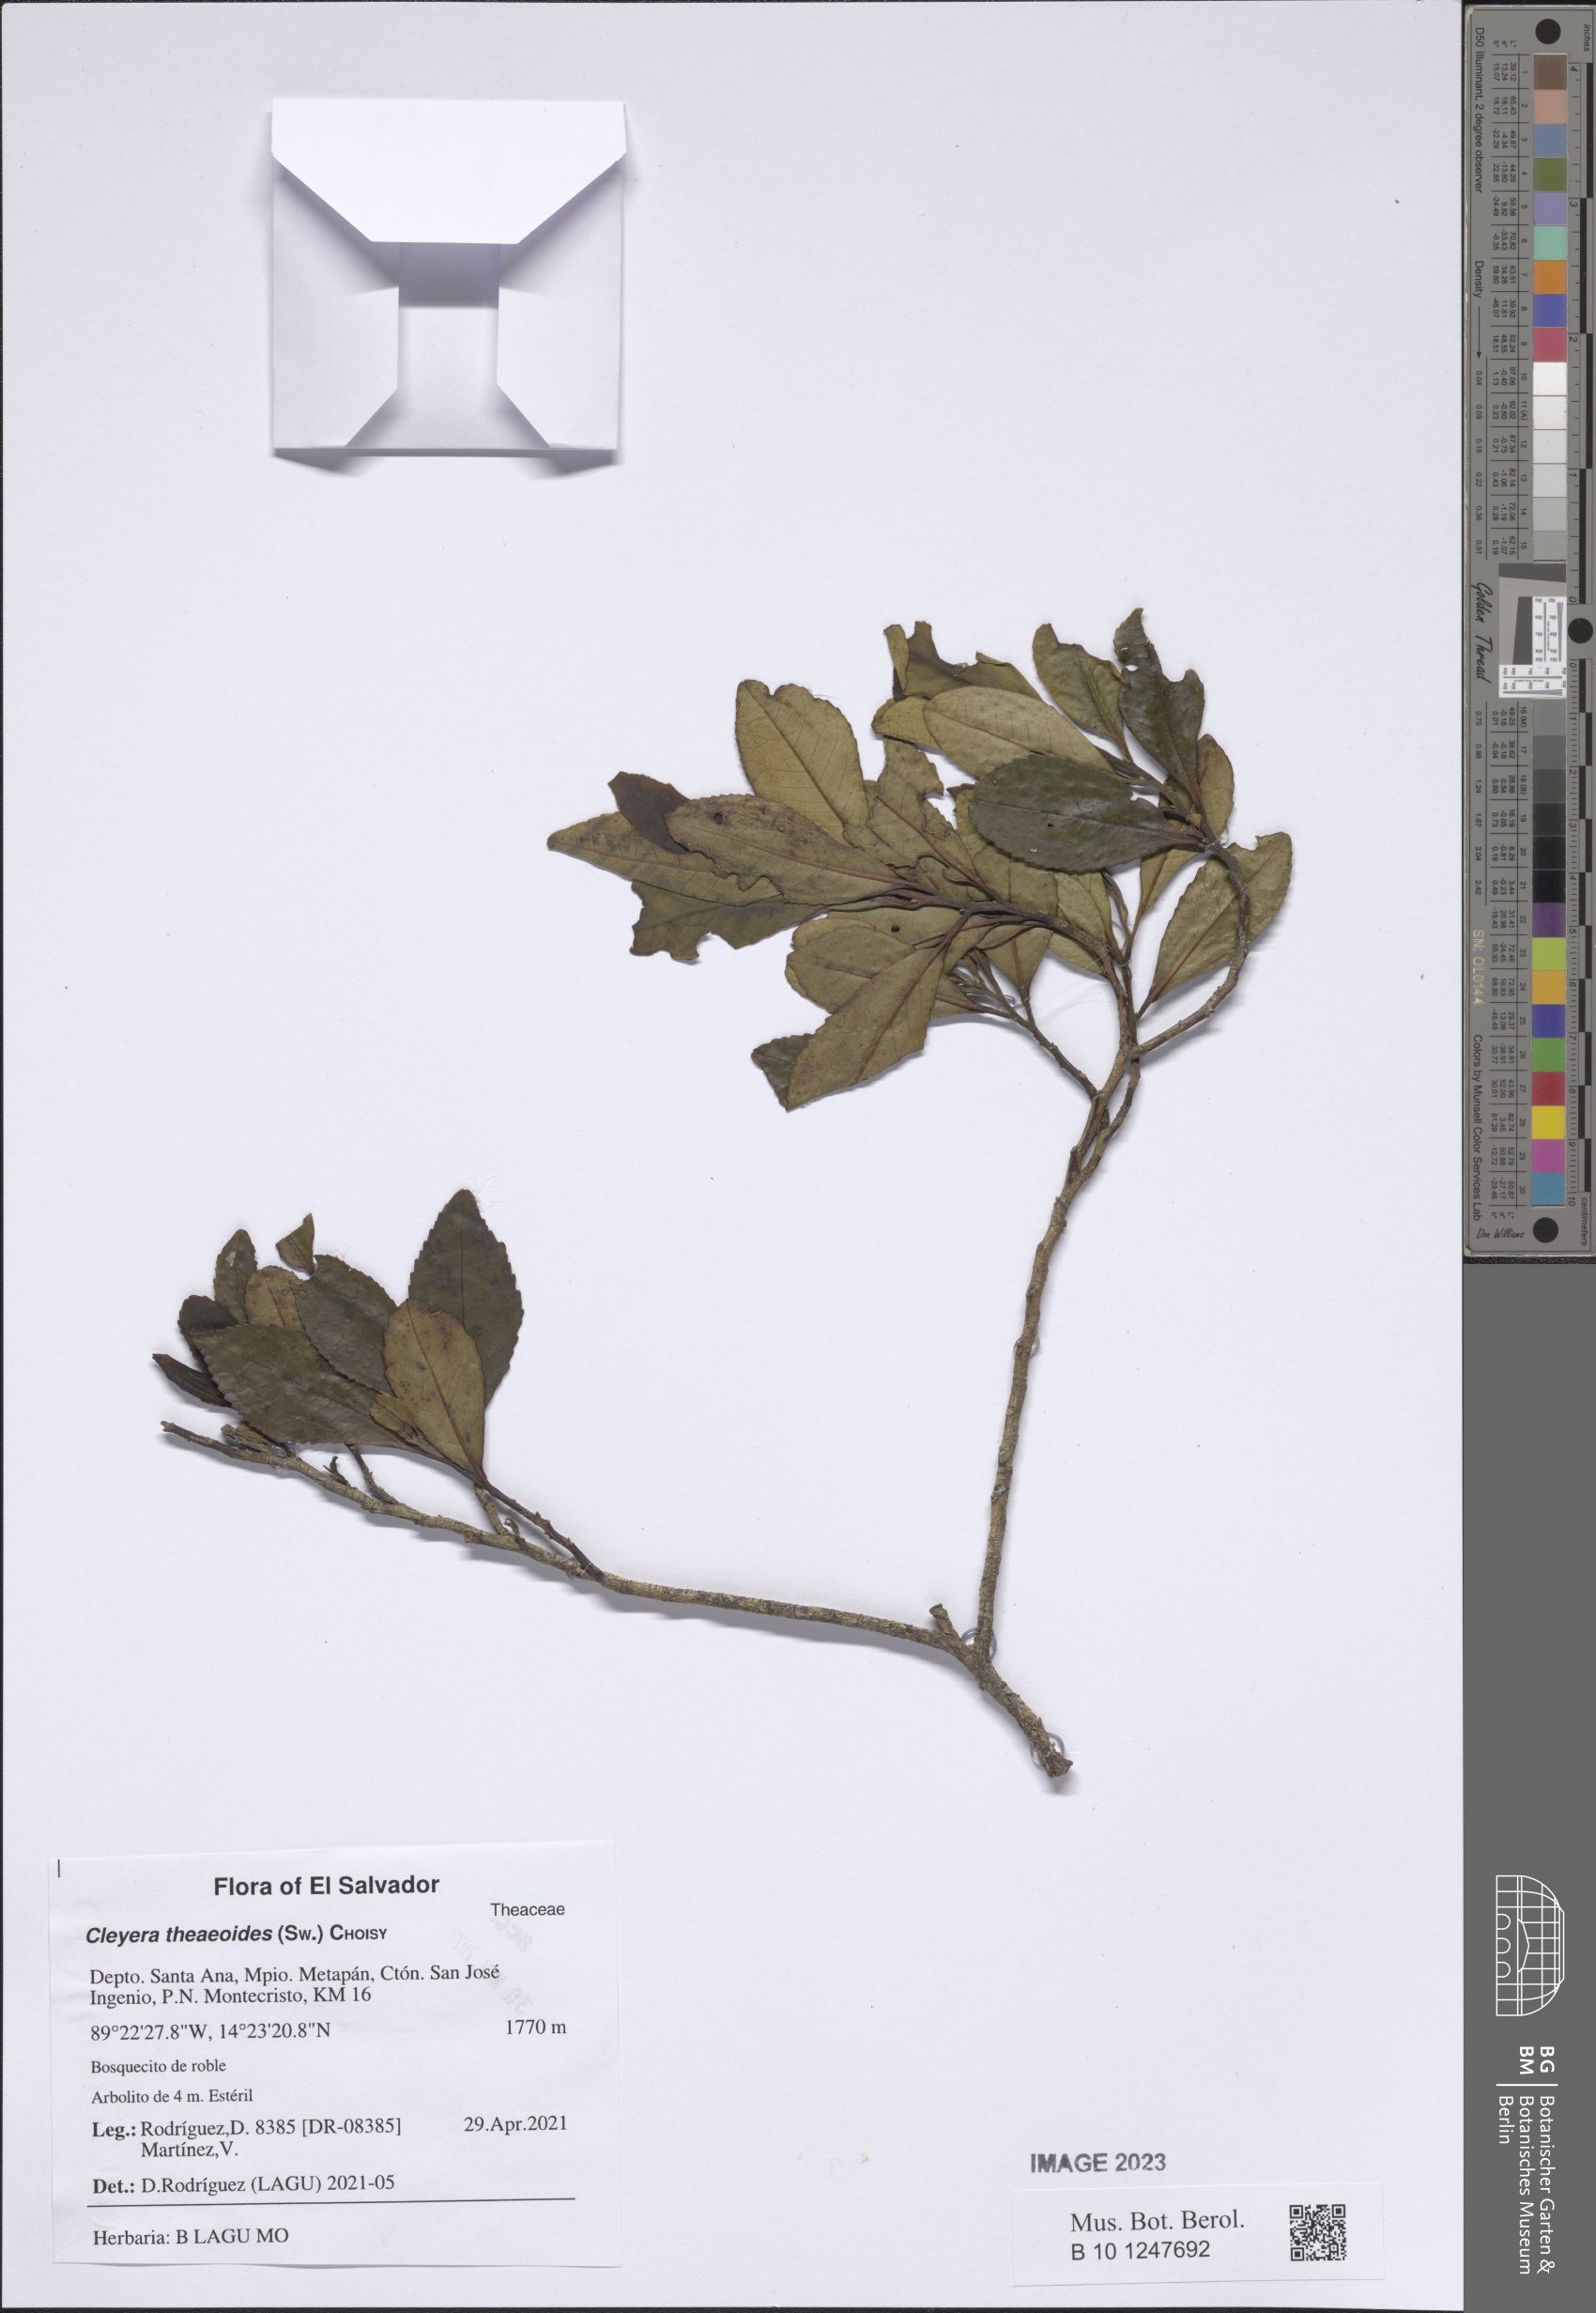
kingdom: Plantae
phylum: Tracheophyta
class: Magnoliopsida
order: Ericales
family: Pentaphylacaceae
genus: Cleyera
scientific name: Cleyera theaeoides
